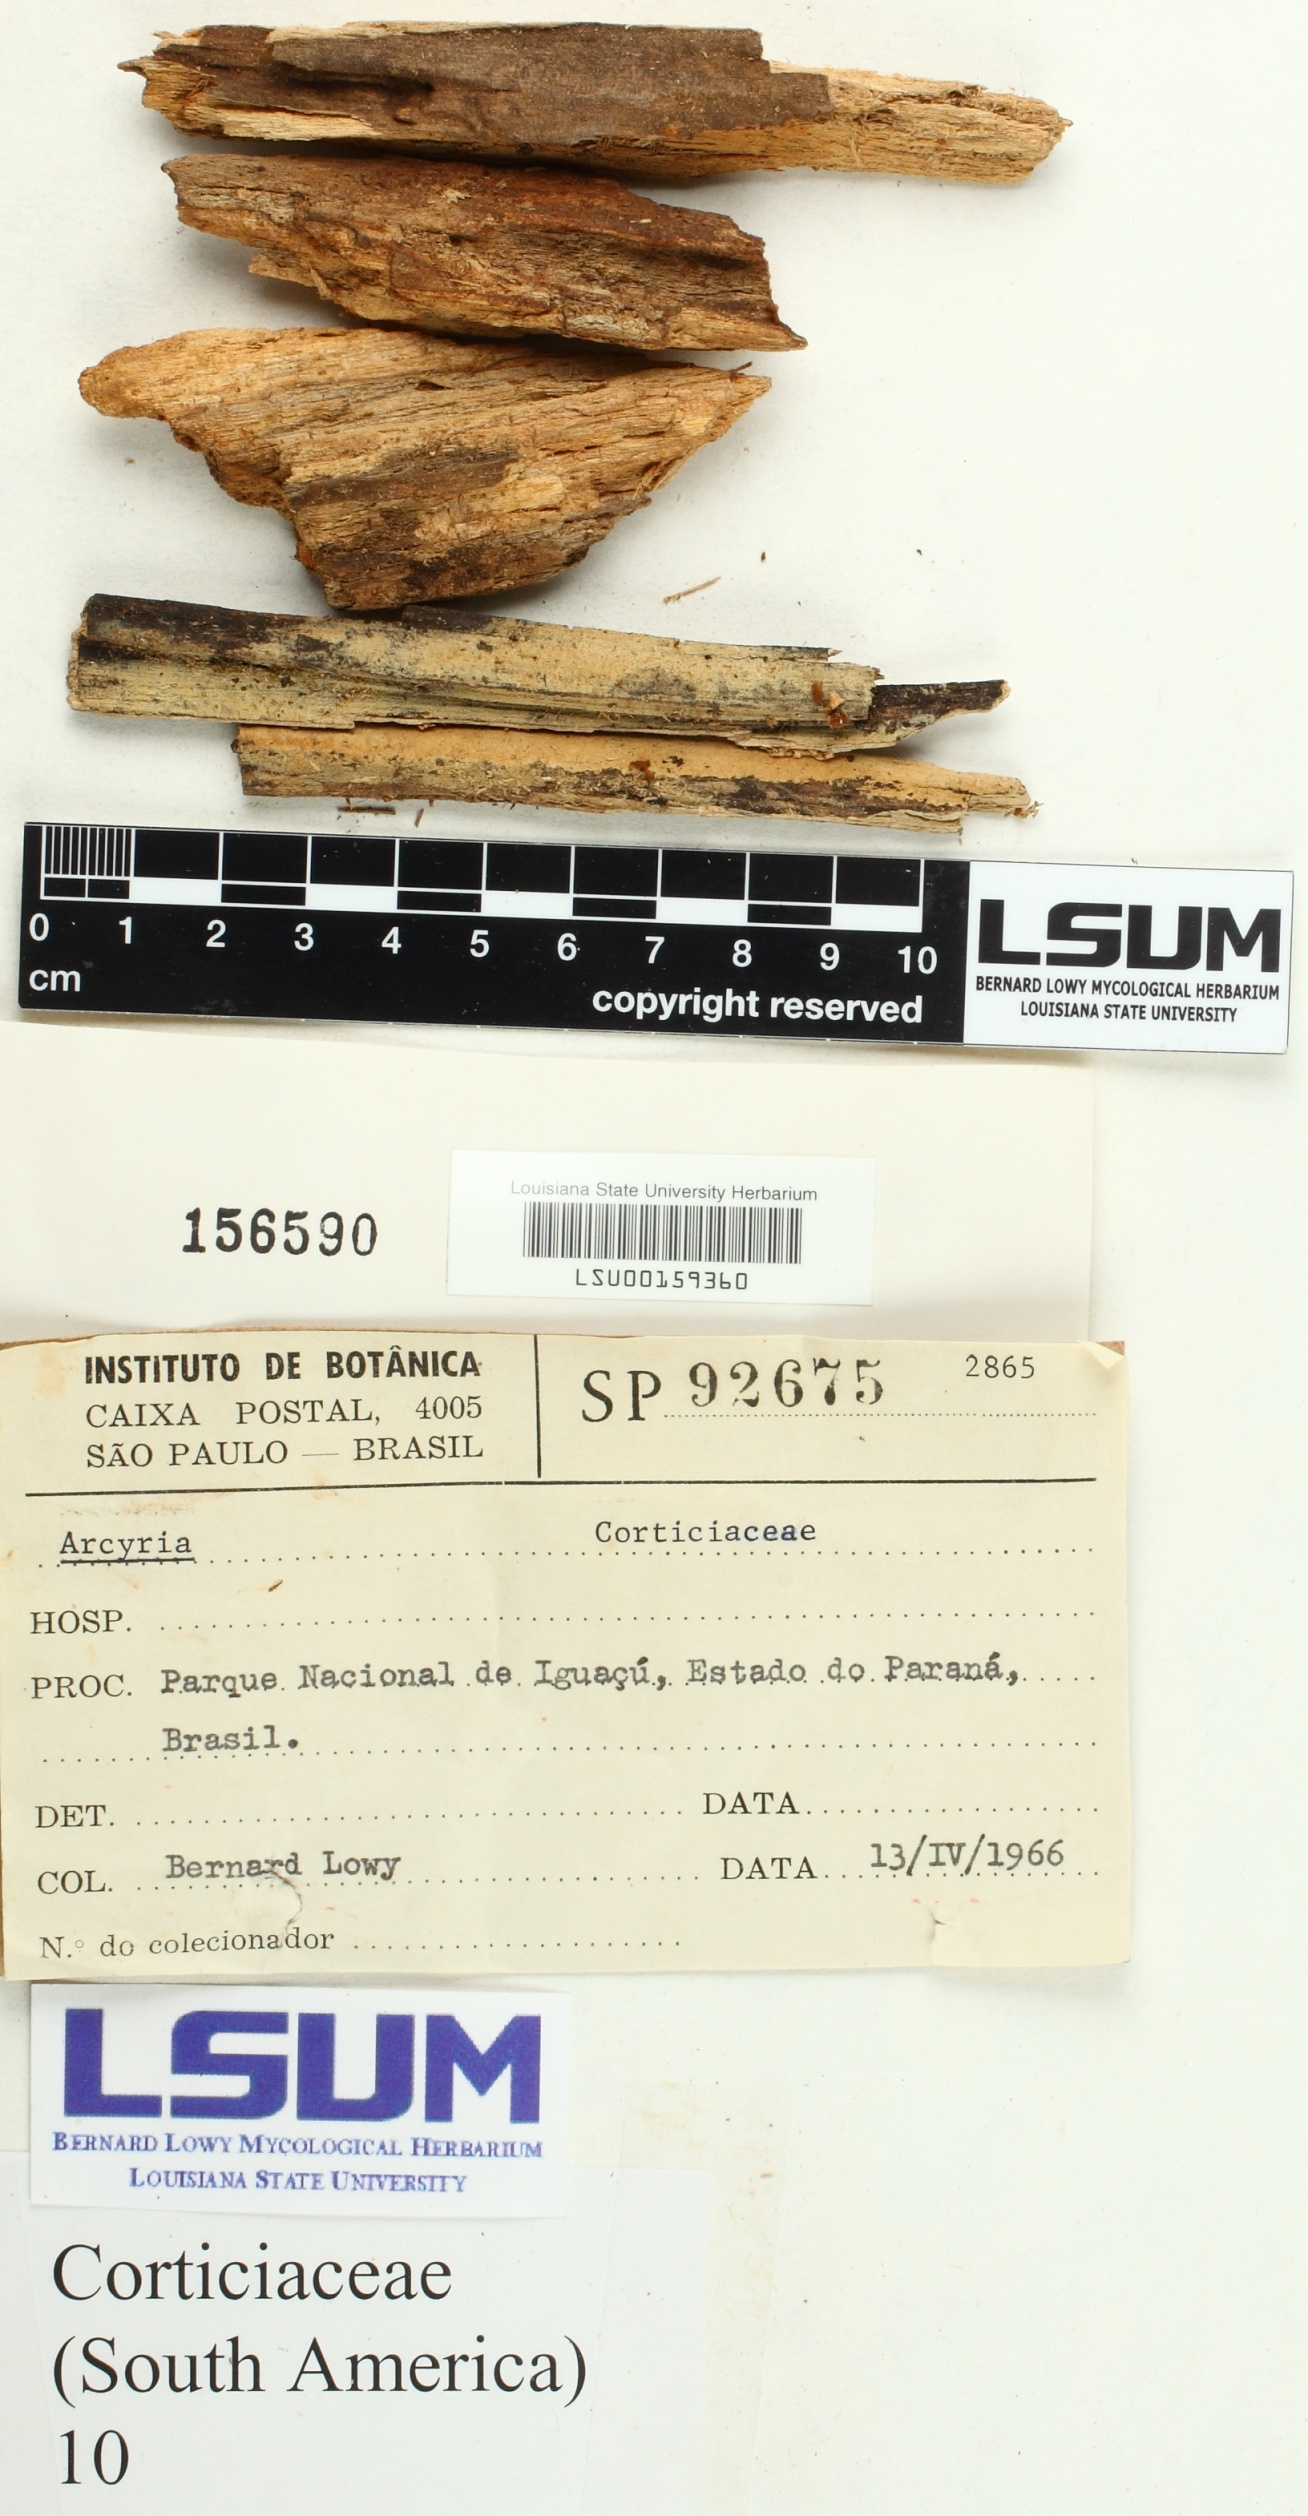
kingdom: Fungi
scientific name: Fungi
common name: Fungi
